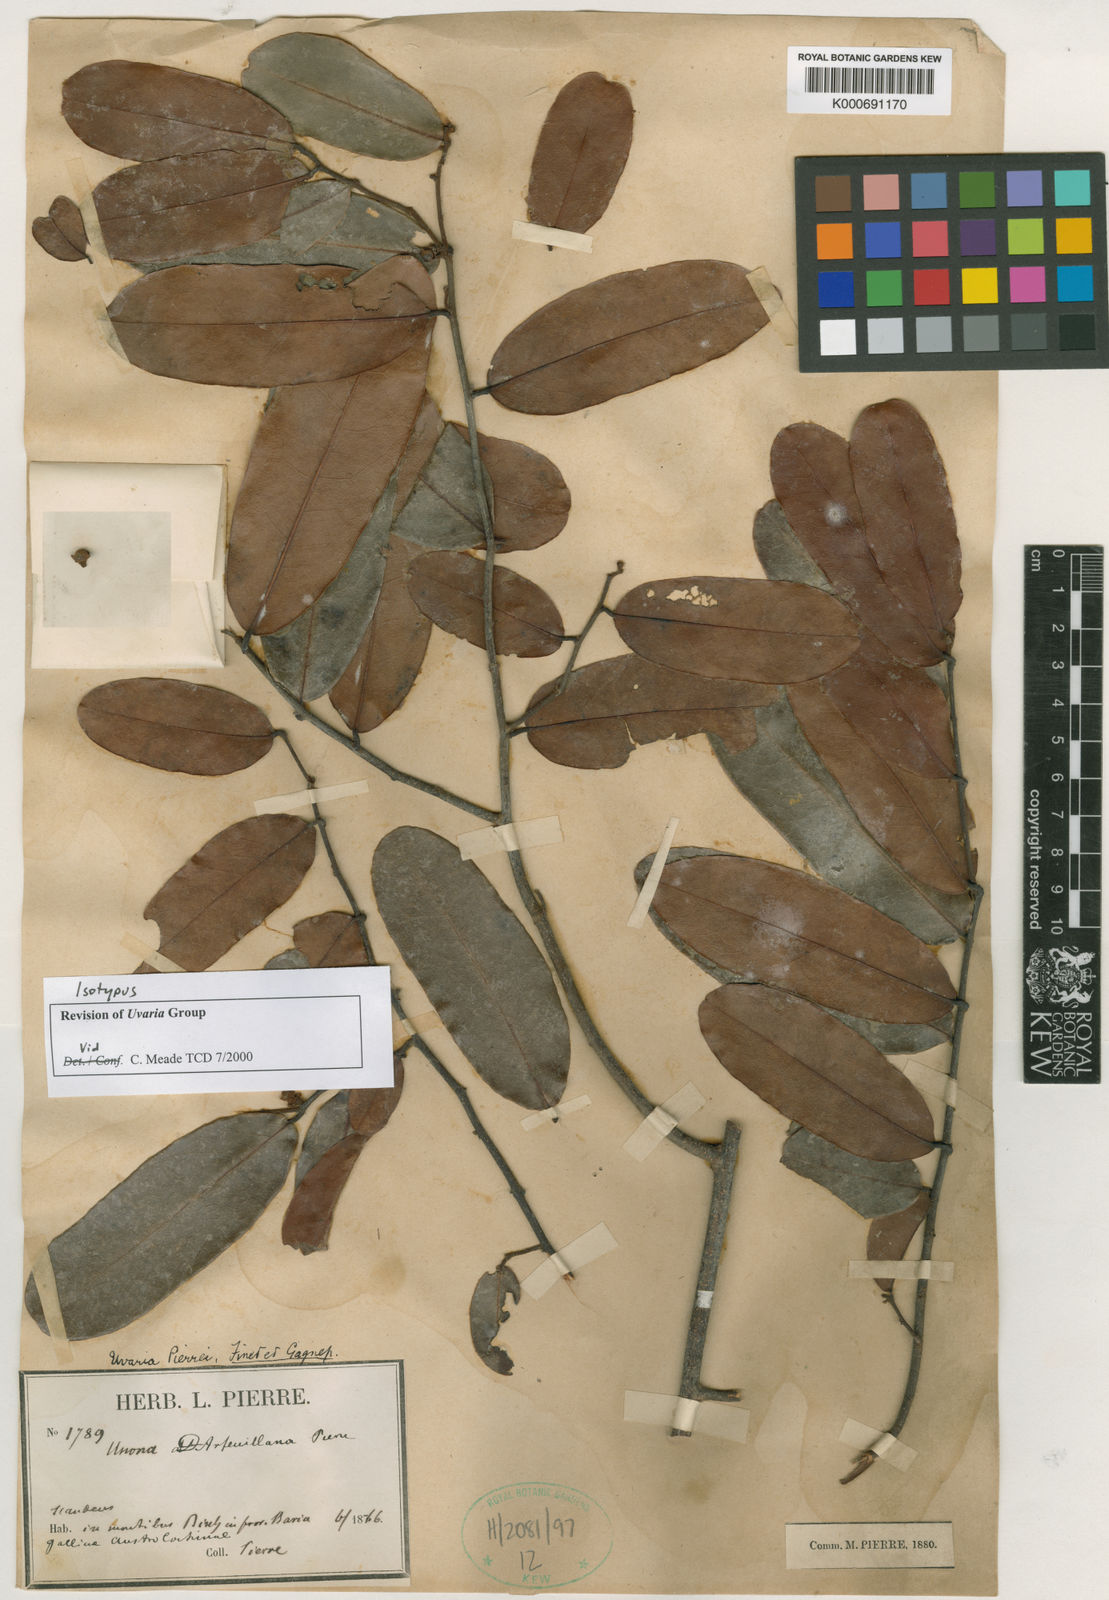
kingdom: Plantae
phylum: Tracheophyta
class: Magnoliopsida
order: Magnoliales
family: Annonaceae
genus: Uvaria
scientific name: Uvaria pierrei
